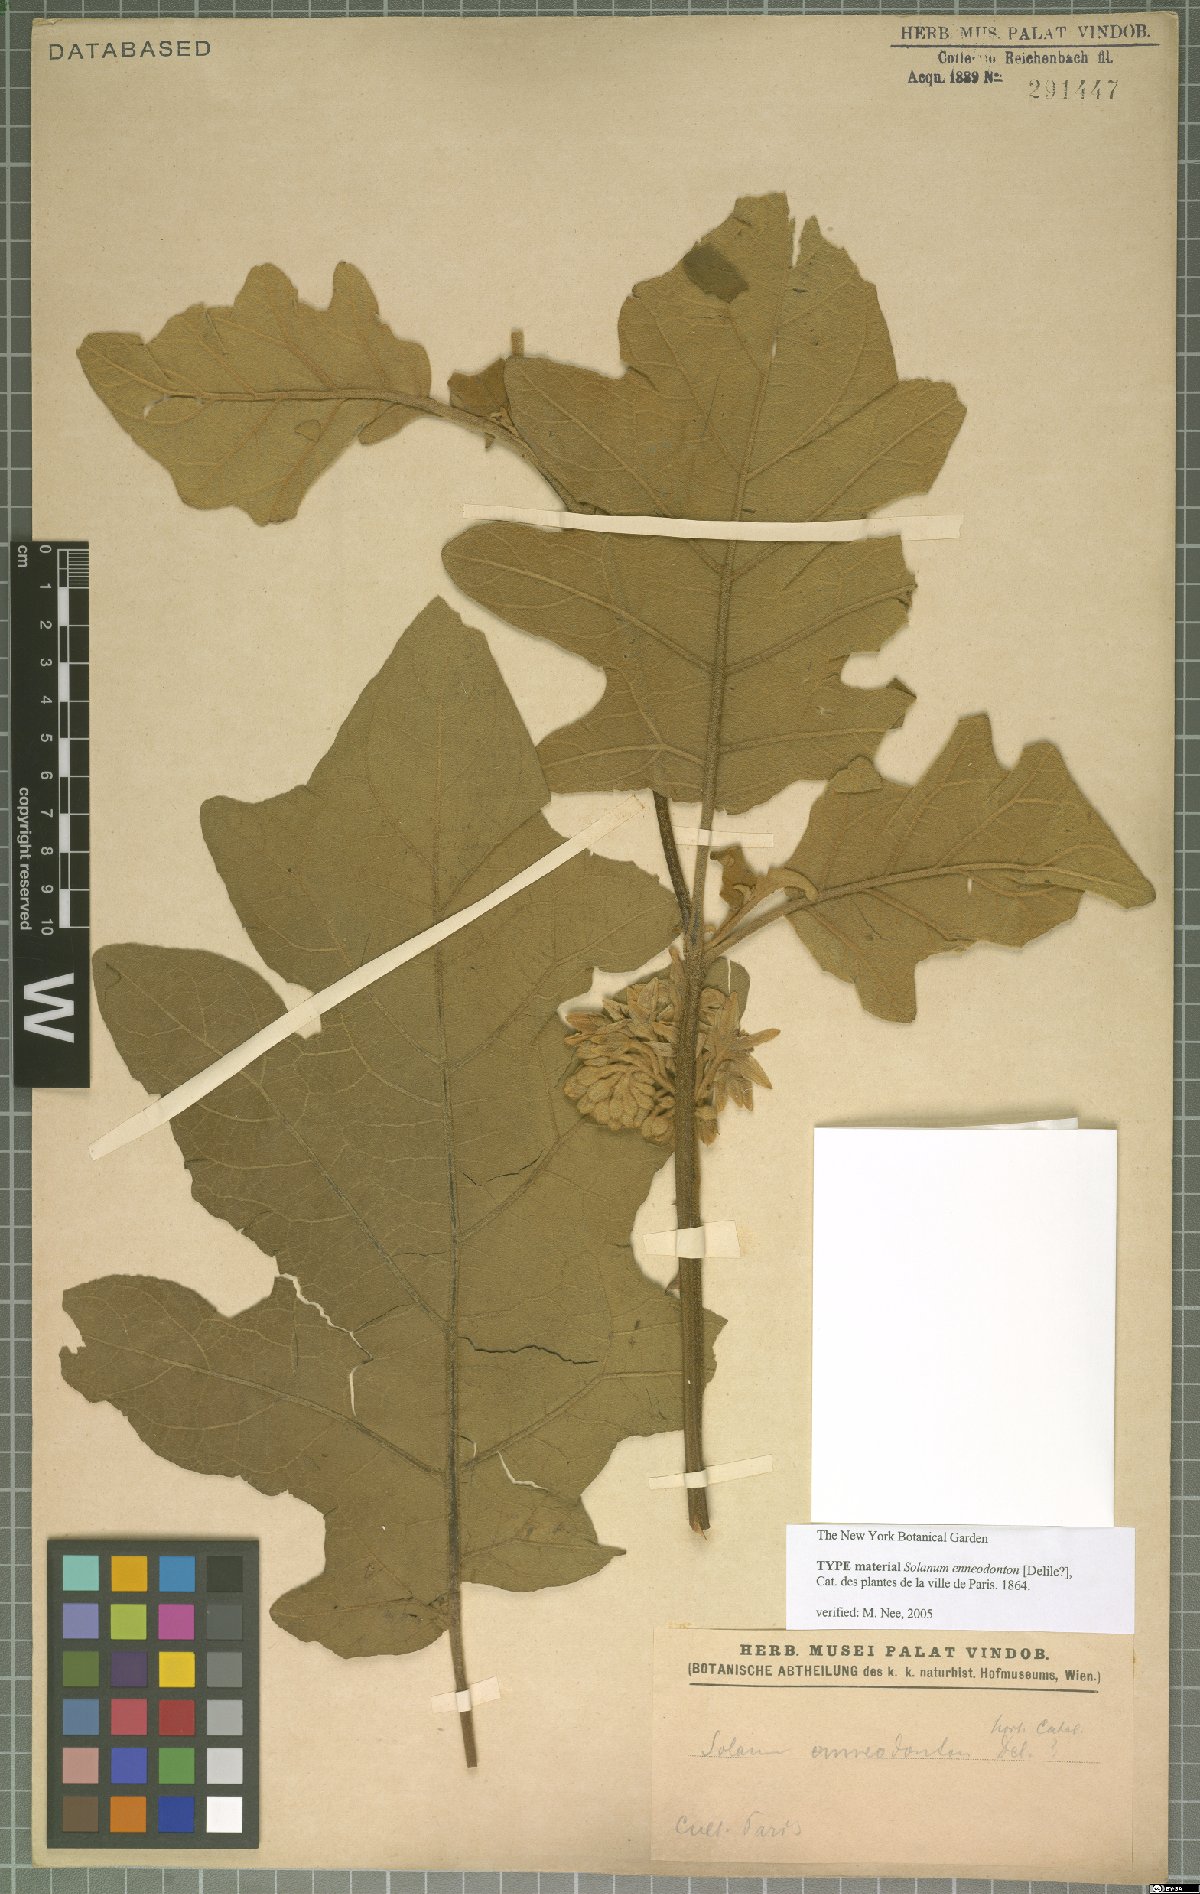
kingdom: Plantae
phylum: Tracheophyta
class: Magnoliopsida
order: Solanales
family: Solanaceae
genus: Solanum
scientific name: Solanum rude-pannum
